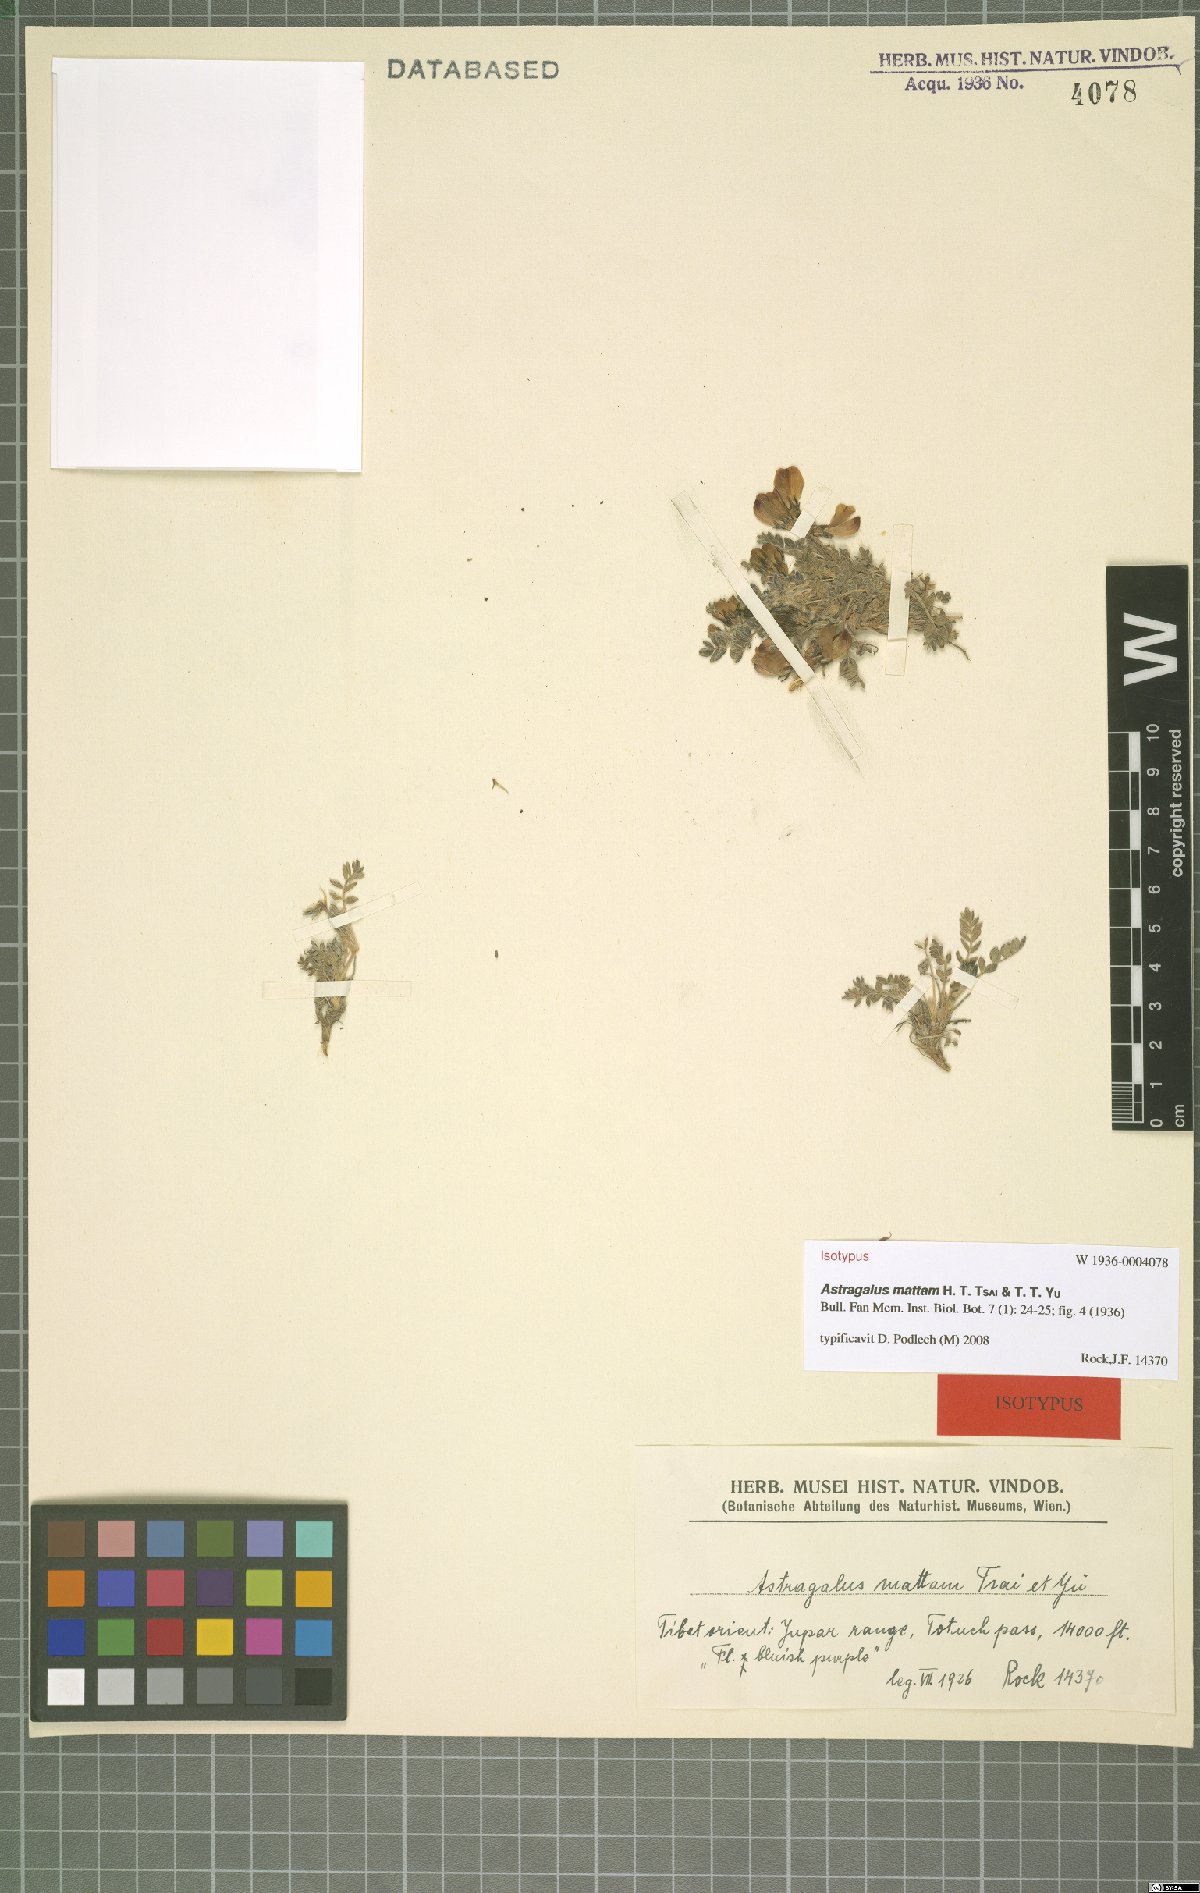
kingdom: Plantae
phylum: Tracheophyta
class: Magnoliopsida
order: Fabales
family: Fabaceae
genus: Astragalus
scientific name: Astragalus mattam
